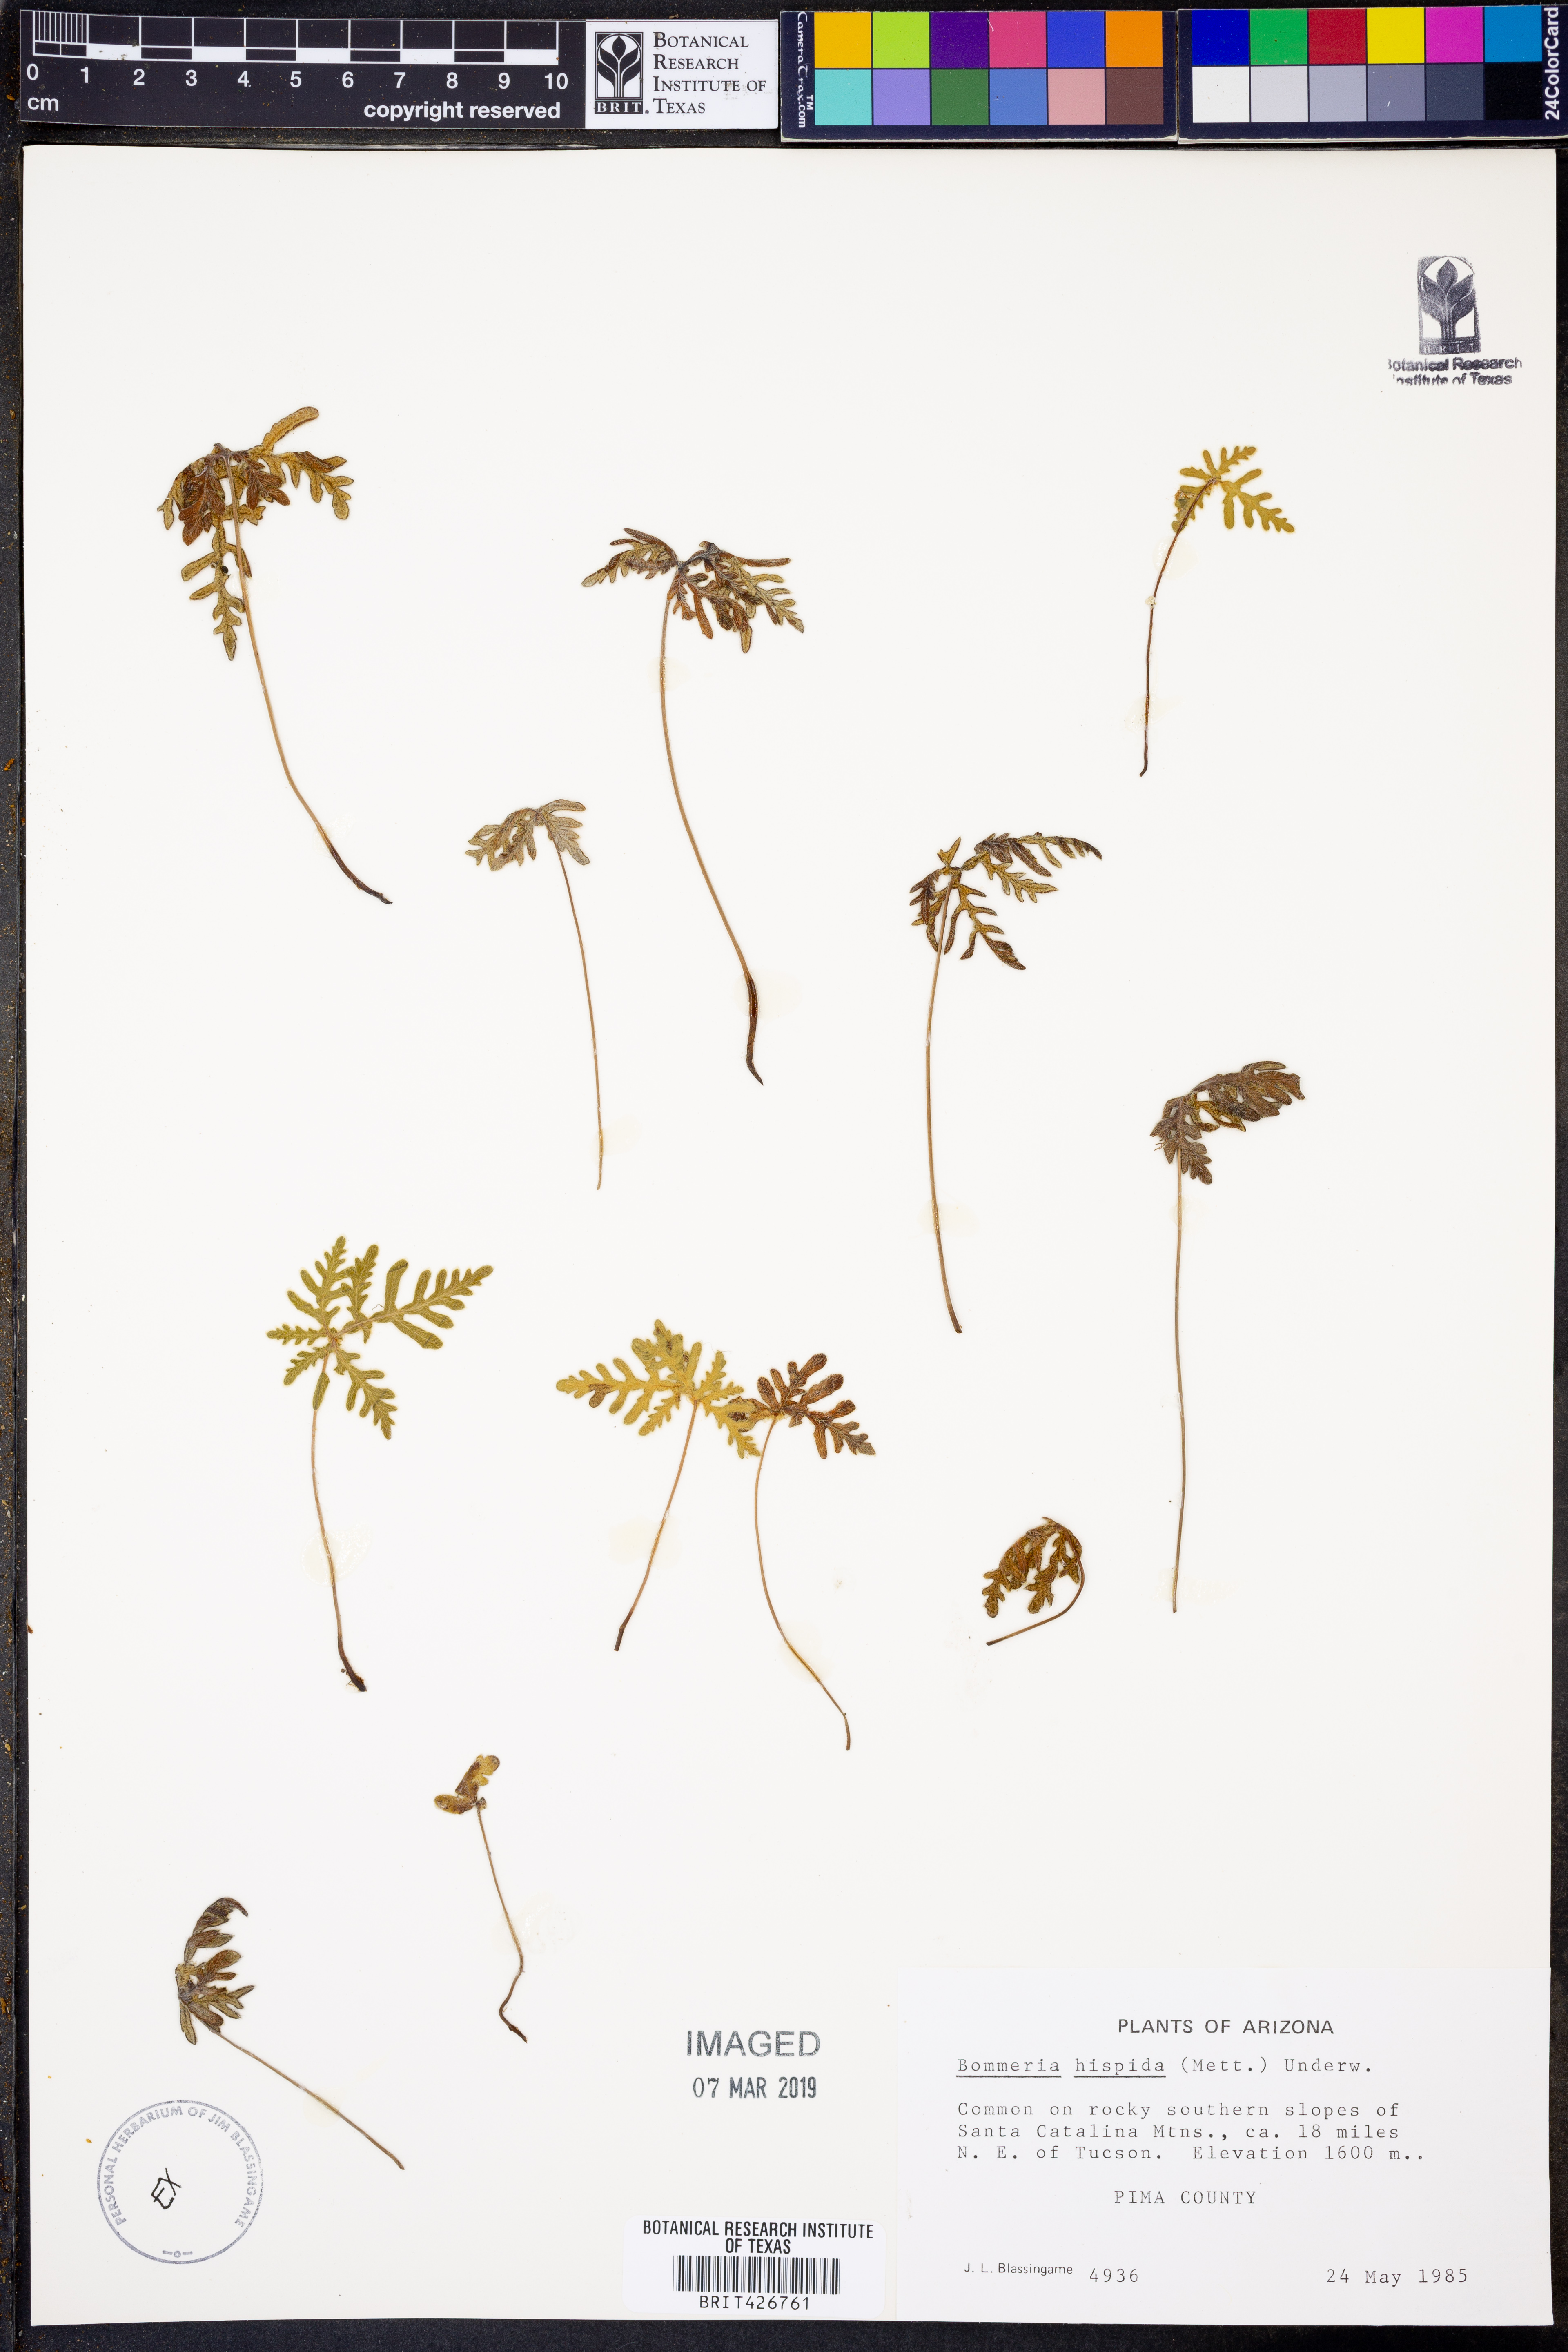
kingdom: Plantae
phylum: Tracheophyta
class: Polypodiopsida
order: Polypodiales
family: Pteridaceae
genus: Bommeria
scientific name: Bommeria hispida
